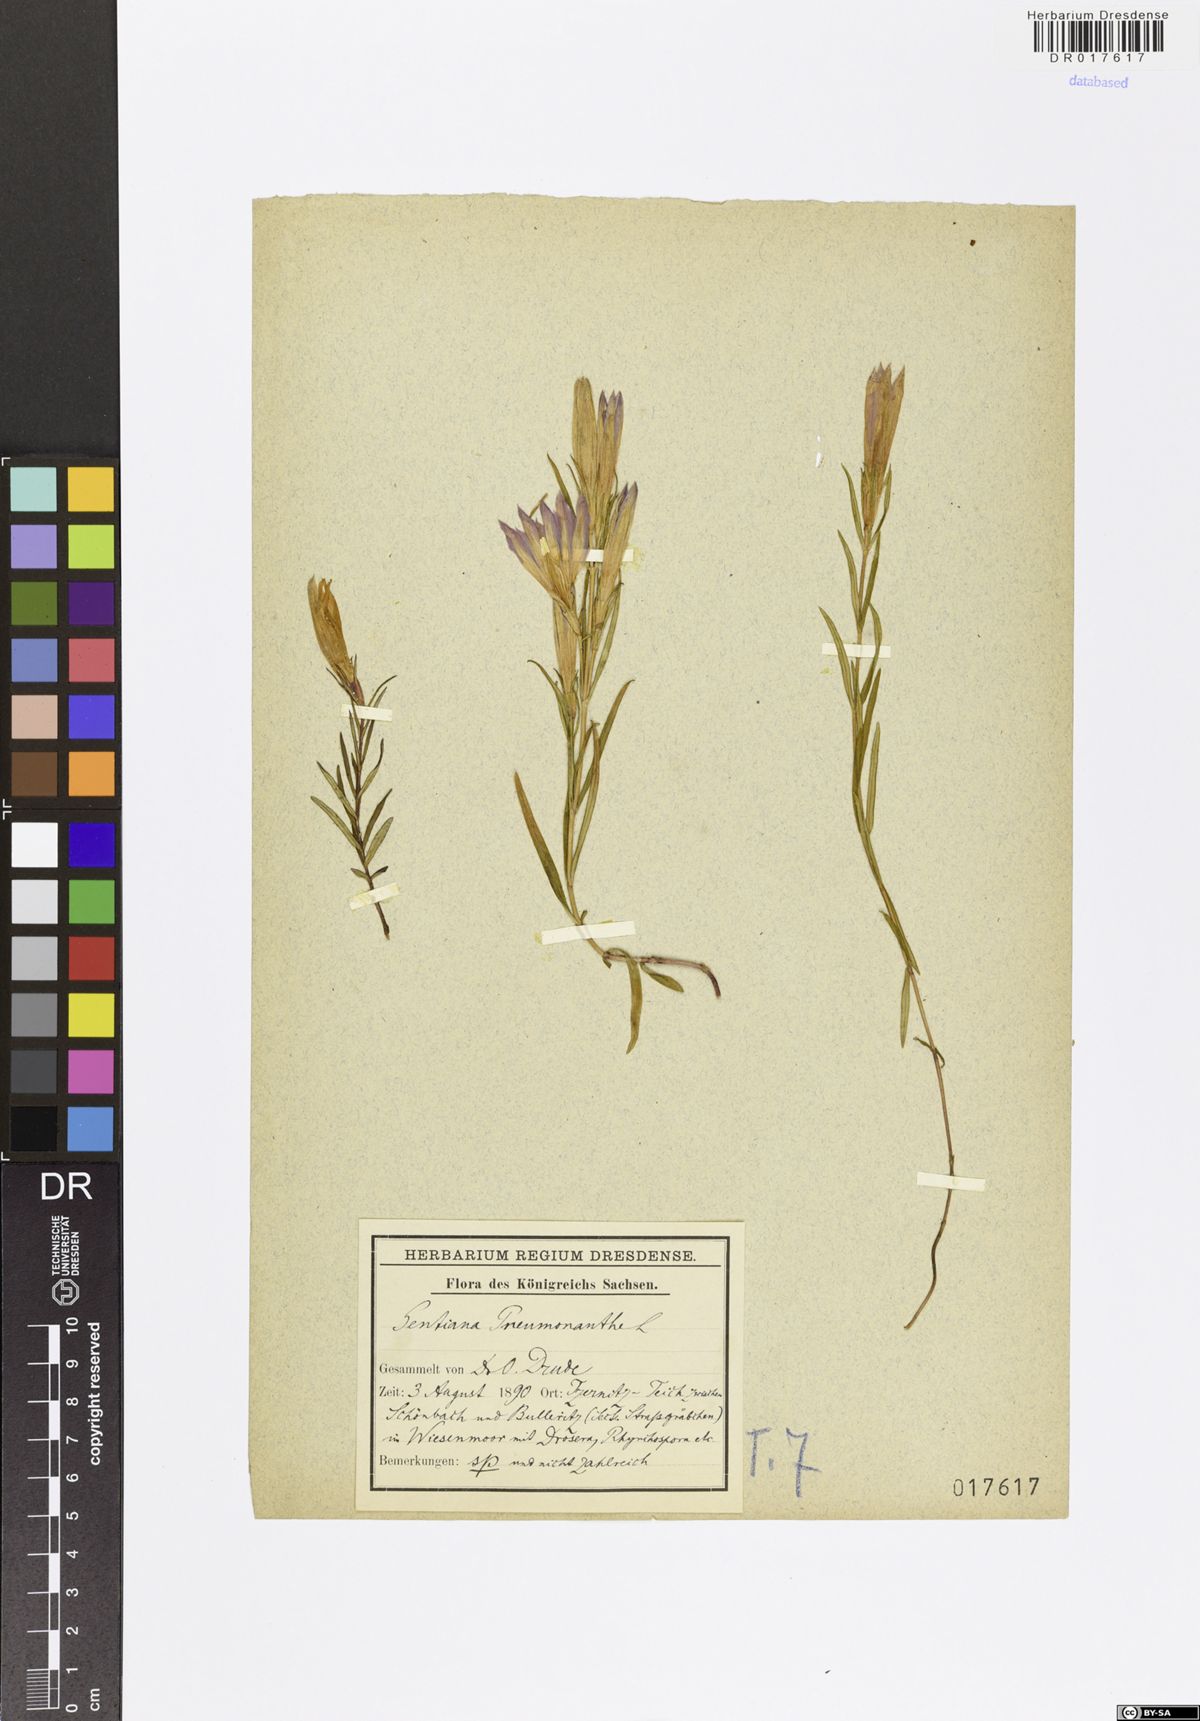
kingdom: Plantae
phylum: Tracheophyta
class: Magnoliopsida
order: Gentianales
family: Gentianaceae
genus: Gentiana
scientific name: Gentiana pneumonanthe
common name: Marsh gentian
